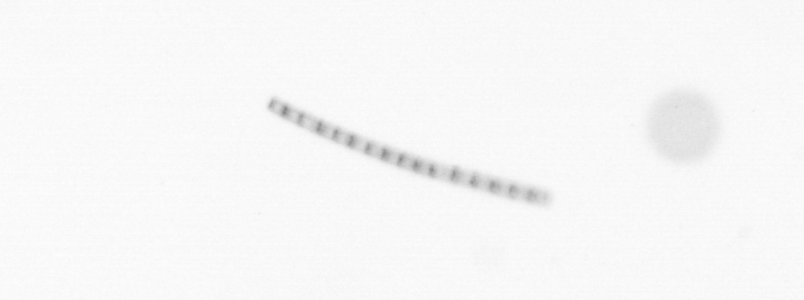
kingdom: Chromista
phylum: Ochrophyta
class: Bacillariophyceae
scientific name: Bacillariophyceae
